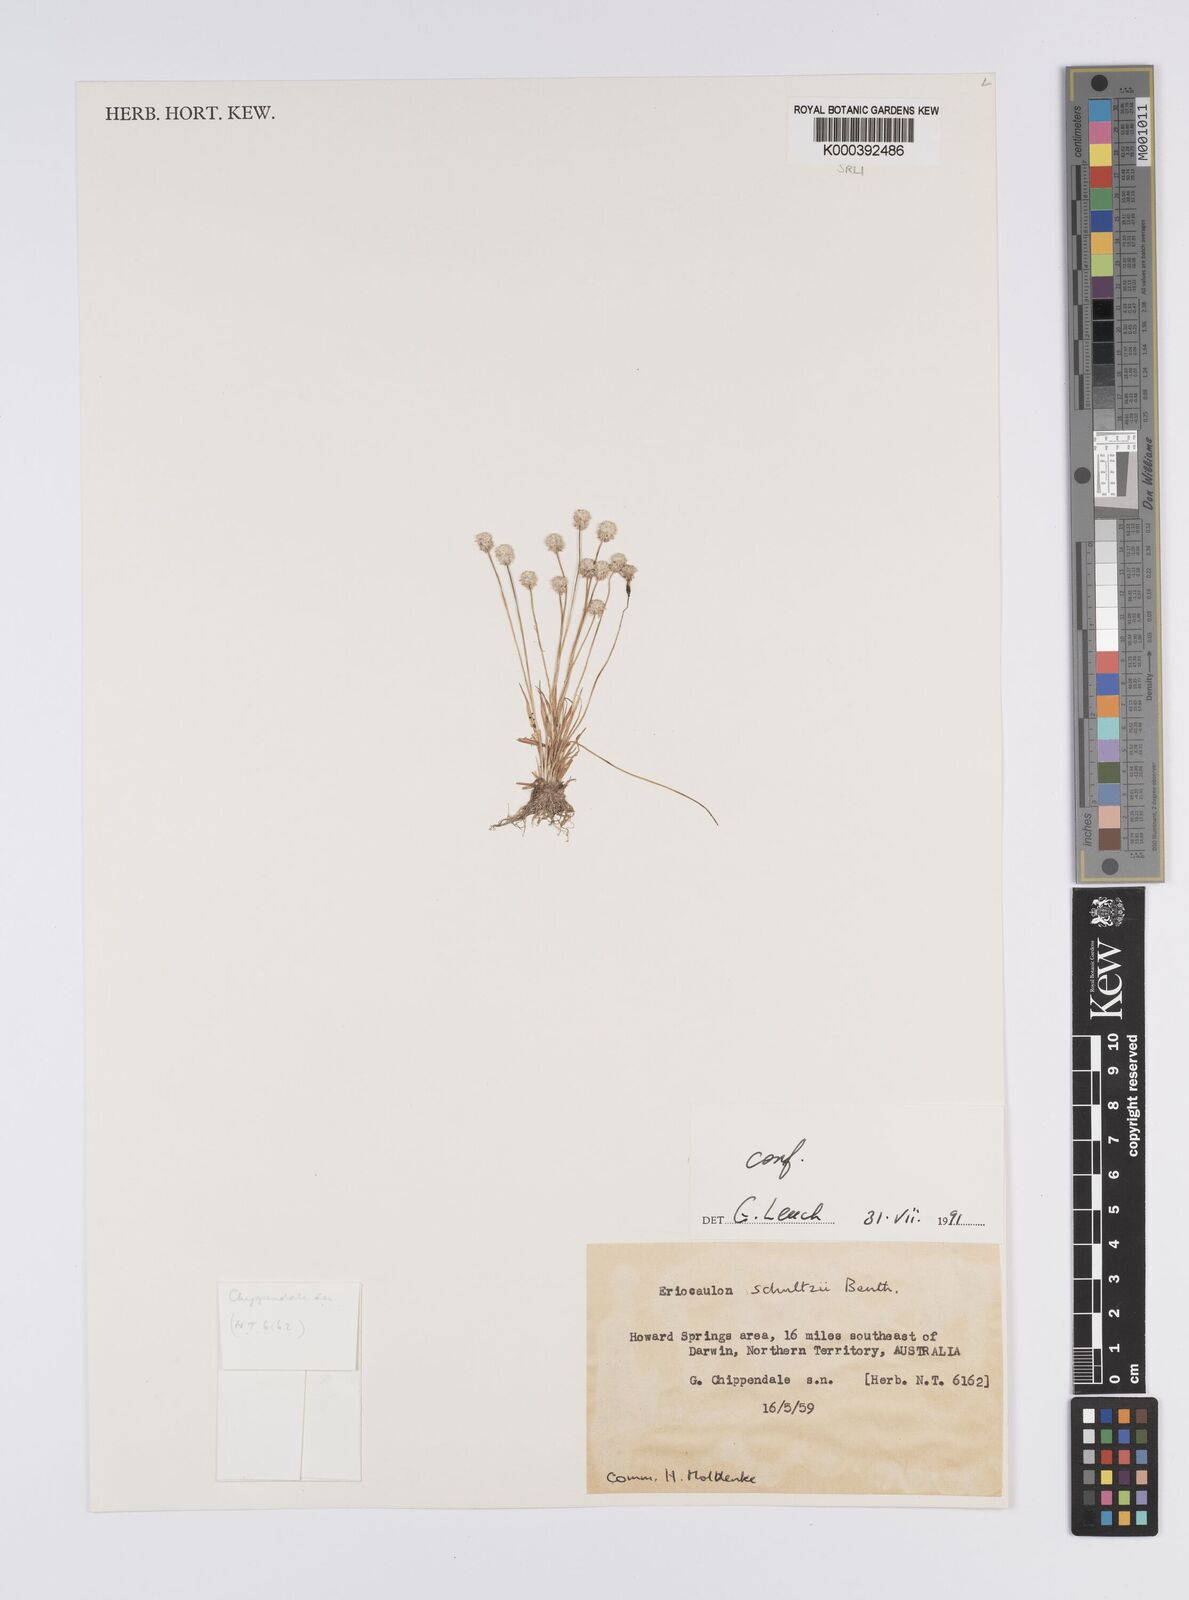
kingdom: Plantae
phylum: Tracheophyta
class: Liliopsida
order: Poales
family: Eriocaulaceae
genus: Eriocaulon
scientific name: Eriocaulon schultzii
